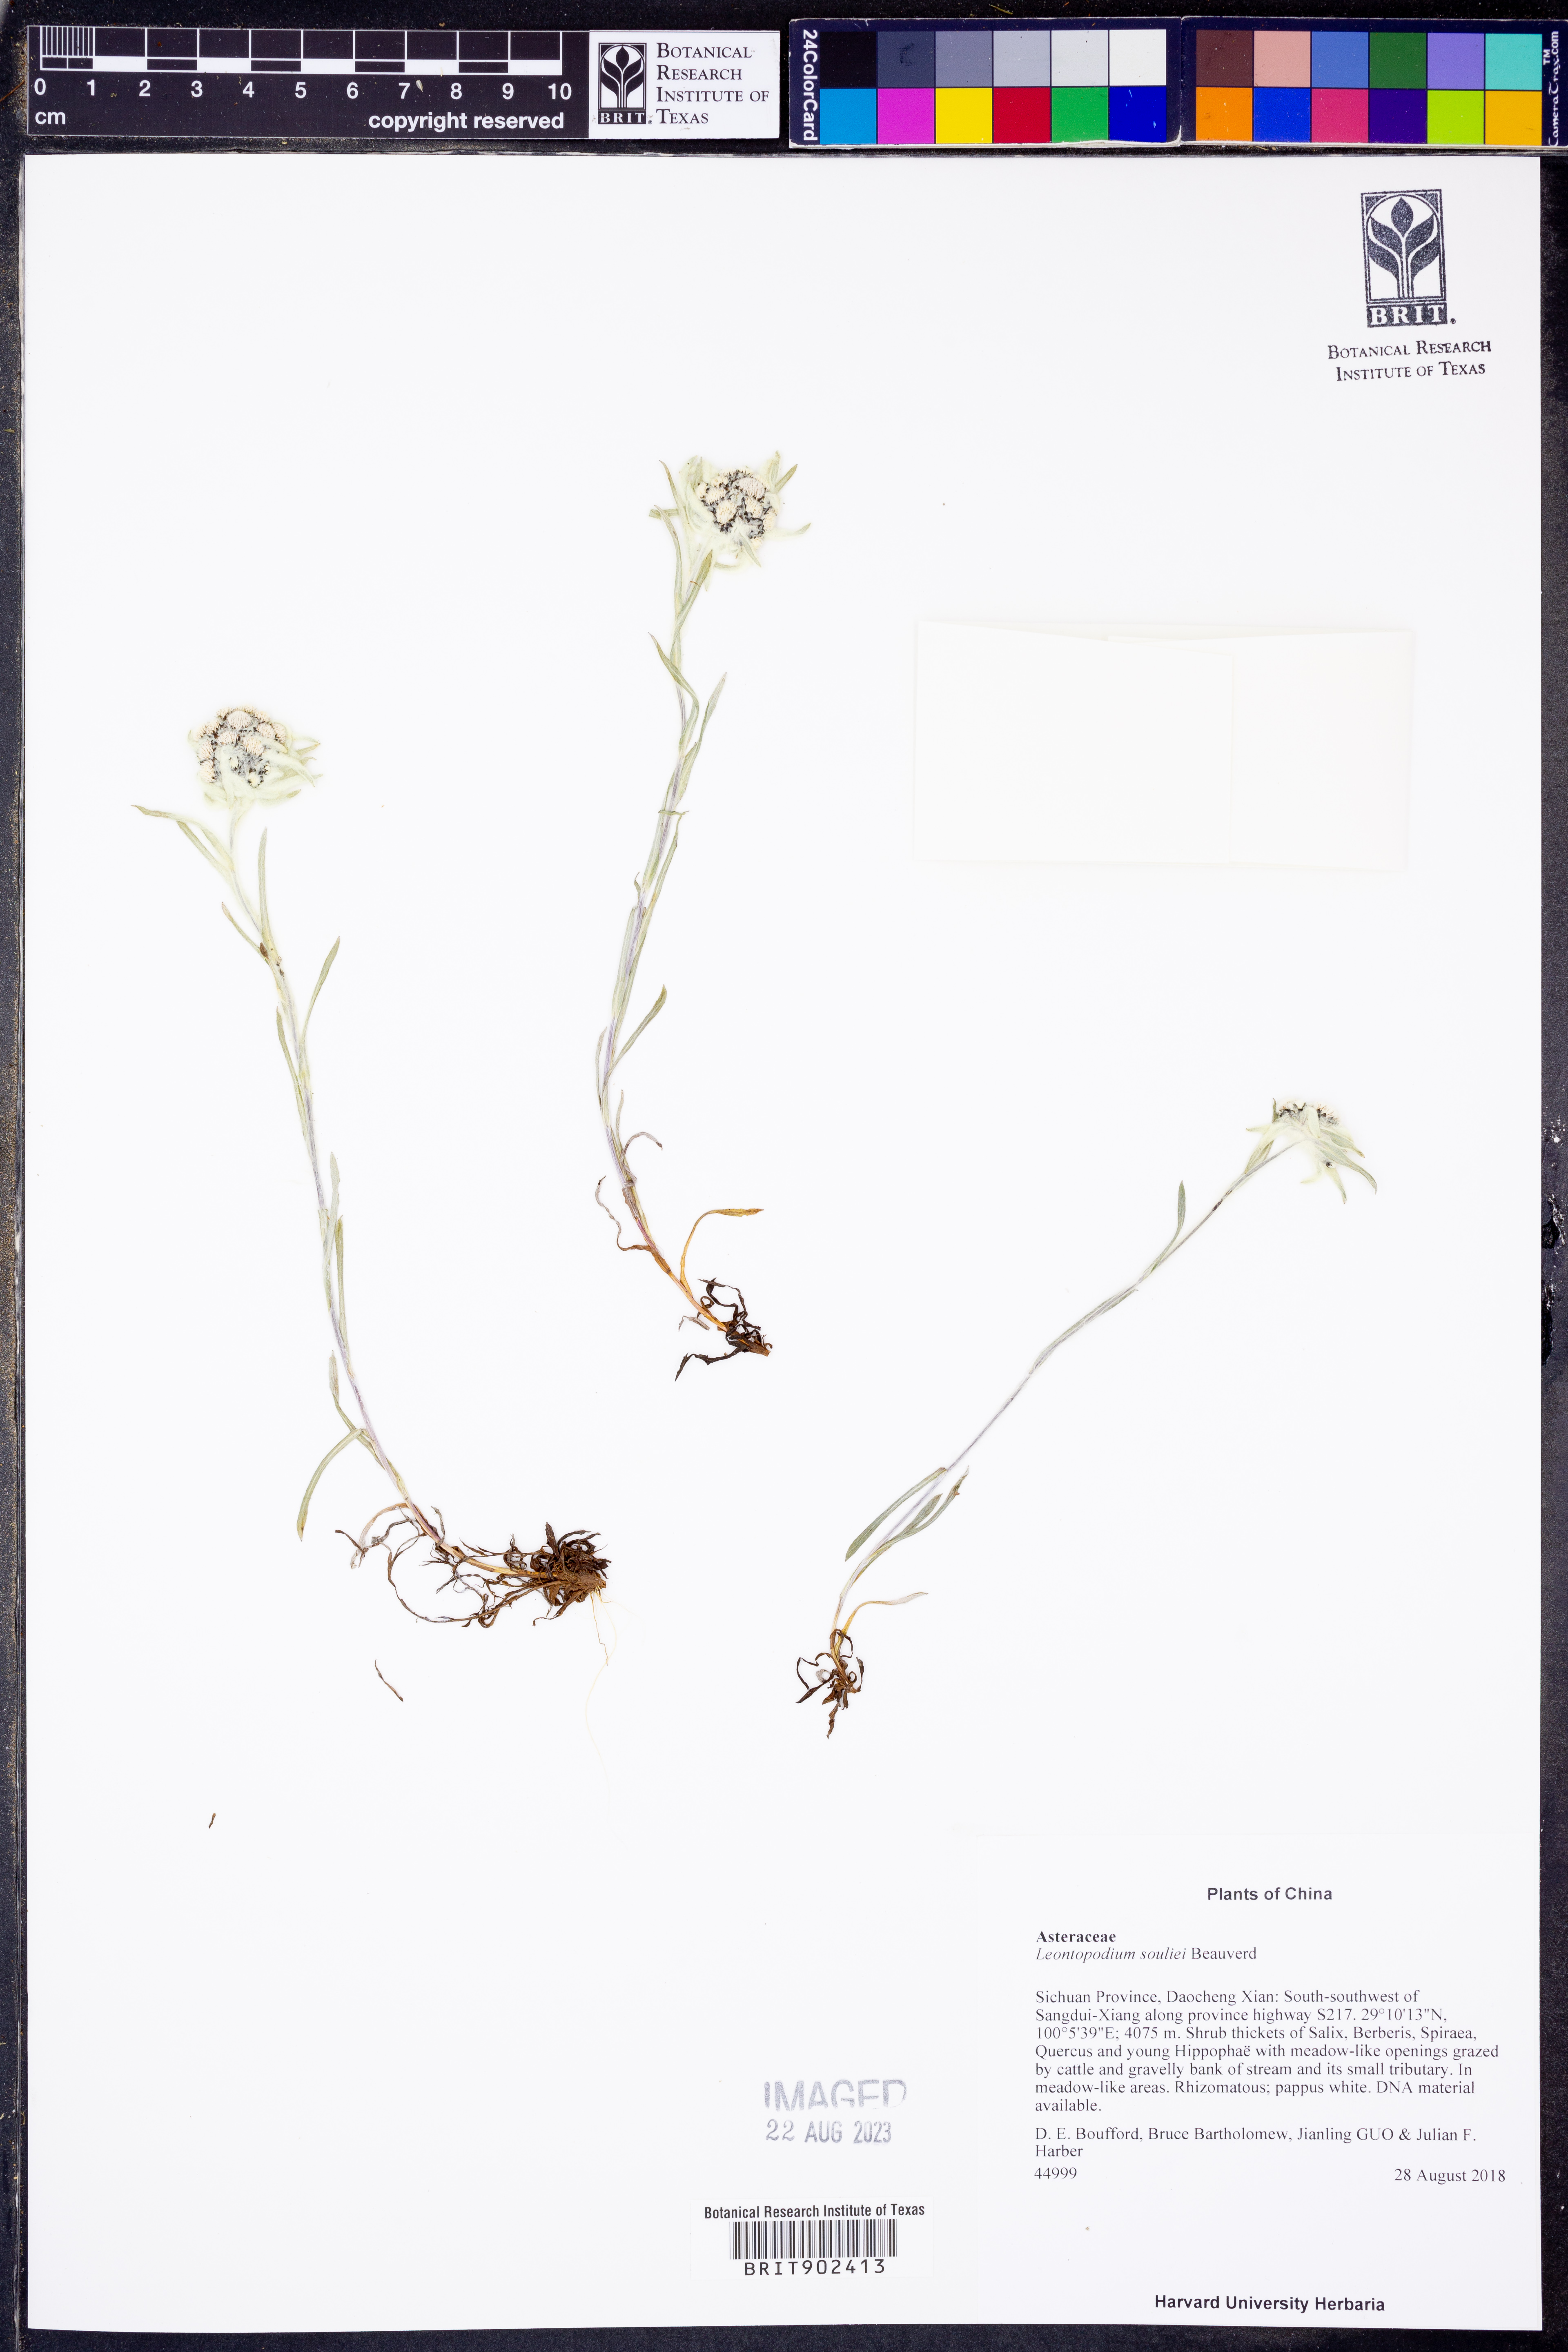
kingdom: Plantae
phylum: Tracheophyta
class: Magnoliopsida
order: Asterales
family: Asteraceae
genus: Leontopodium
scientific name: Leontopodium
